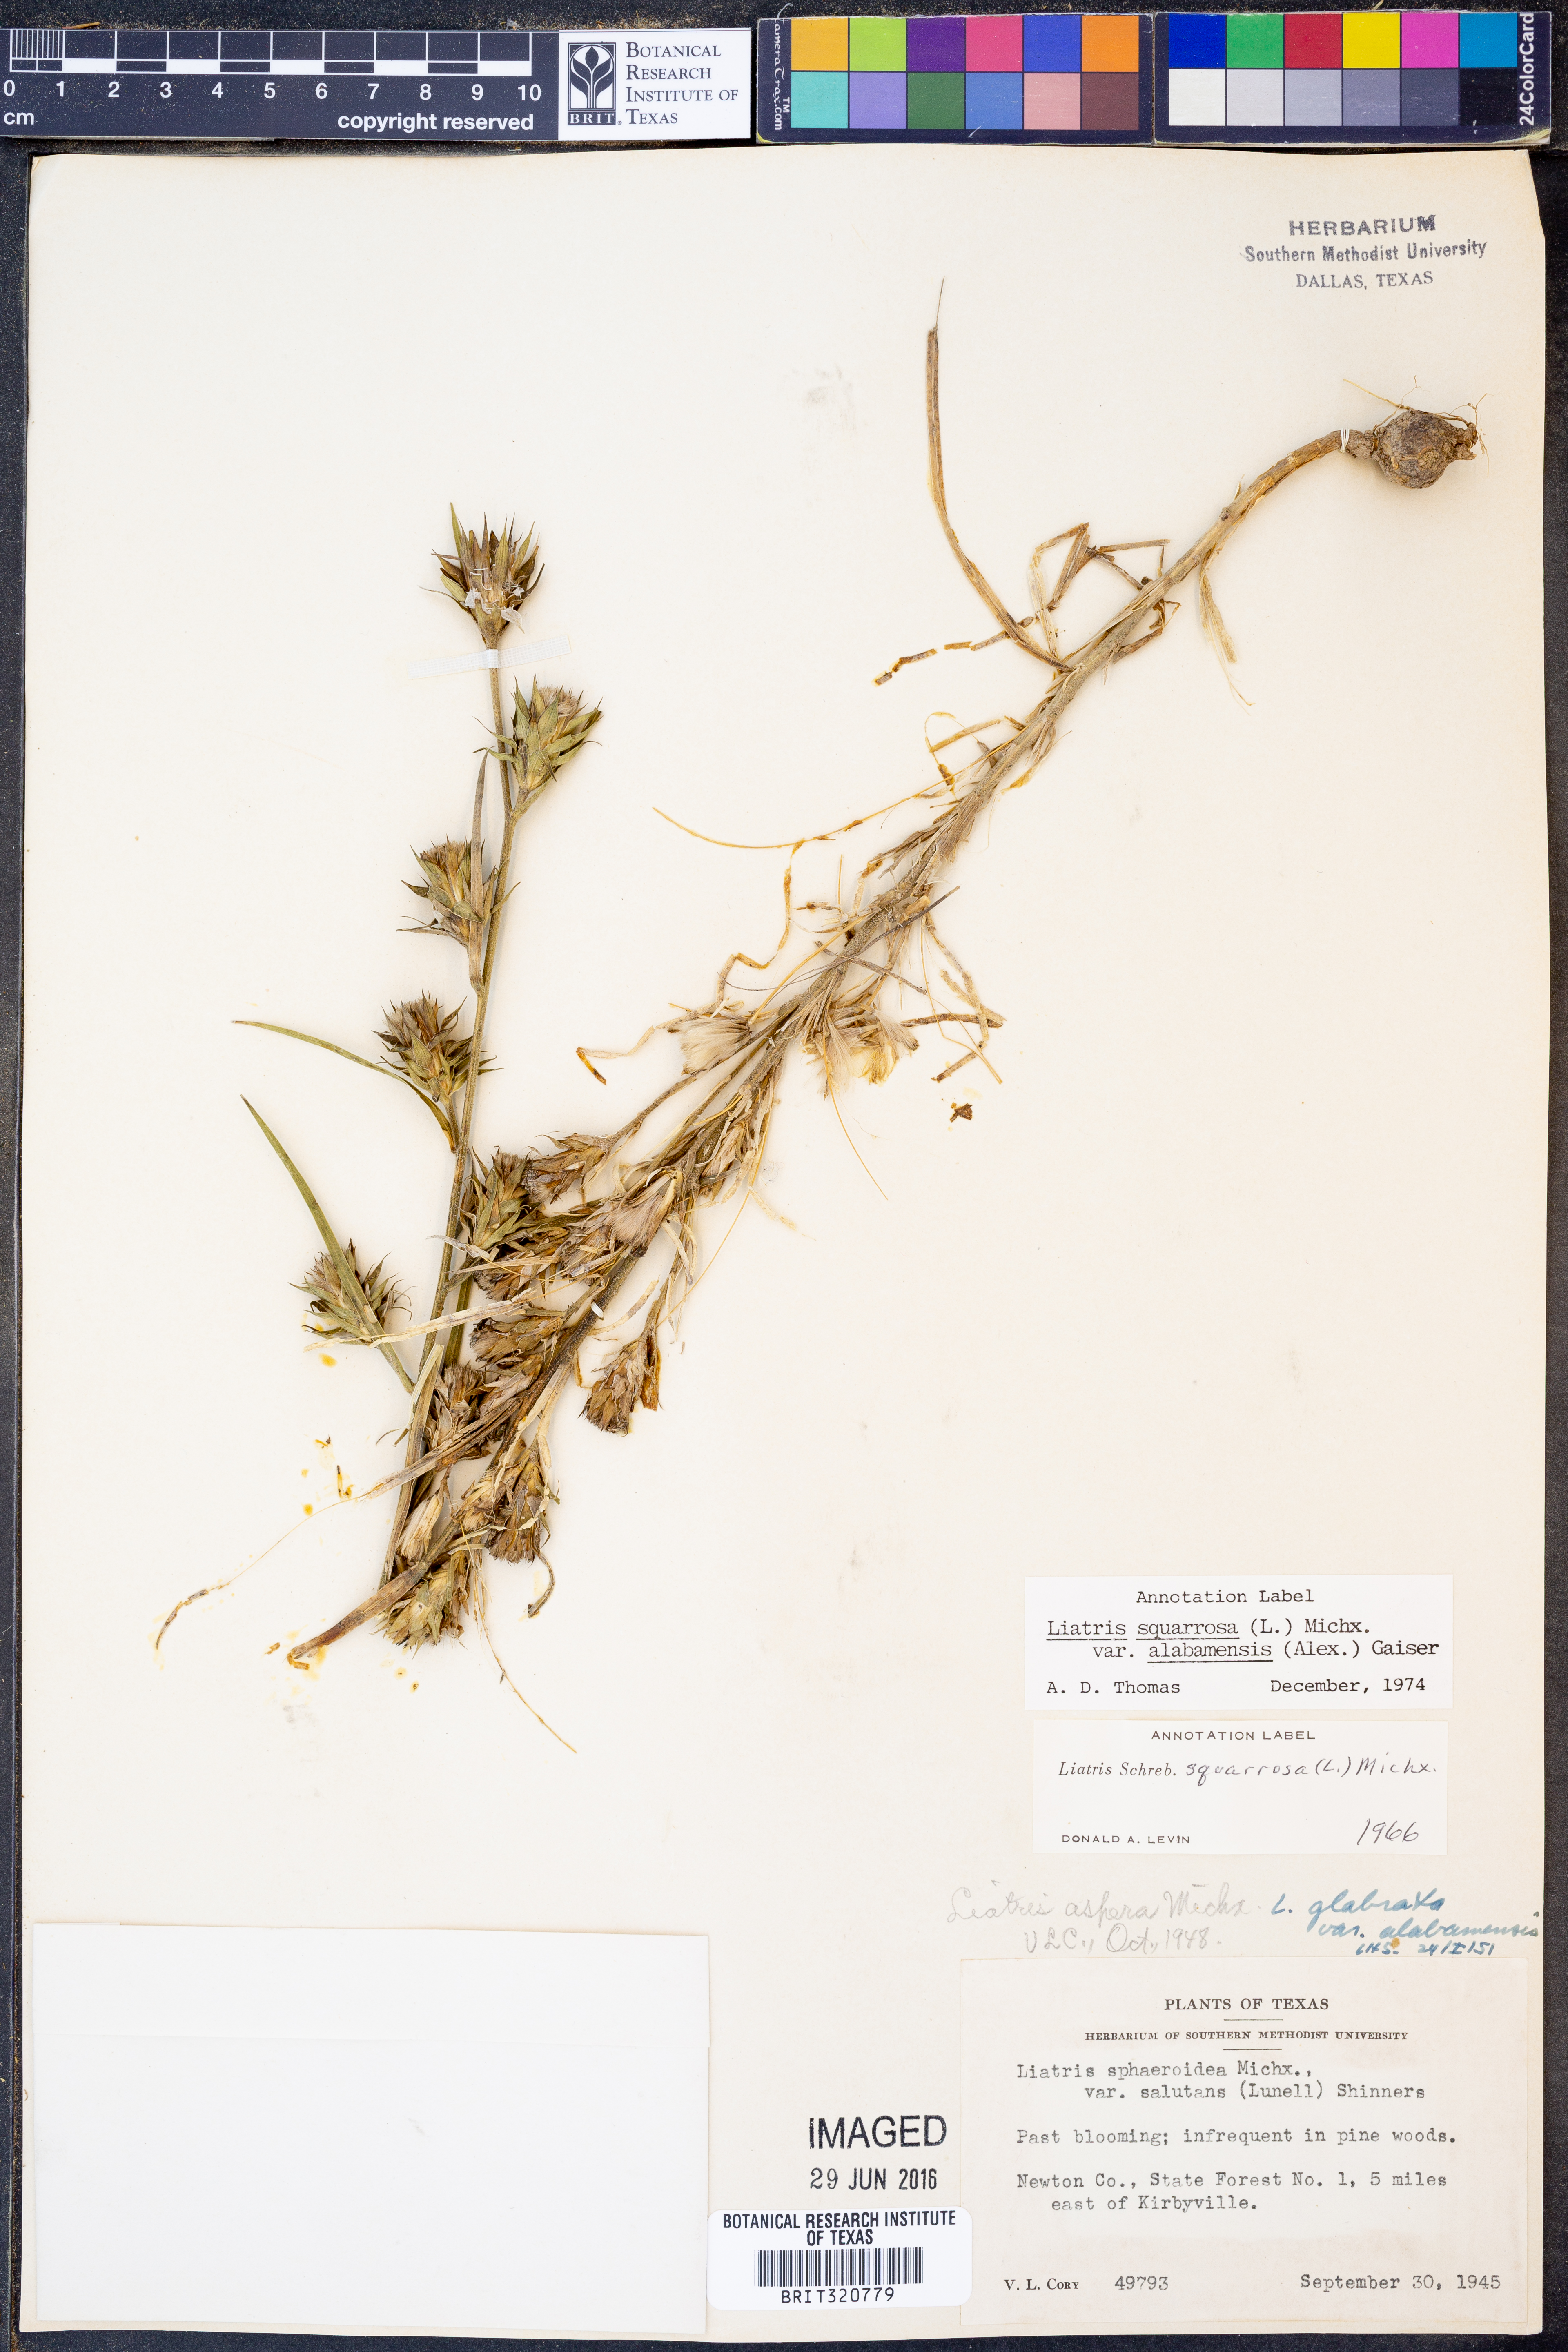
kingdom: Plantae
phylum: Tracheophyta
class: Magnoliopsida
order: Asterales
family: Asteraceae
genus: Liatris
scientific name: Liatris squarrosa
